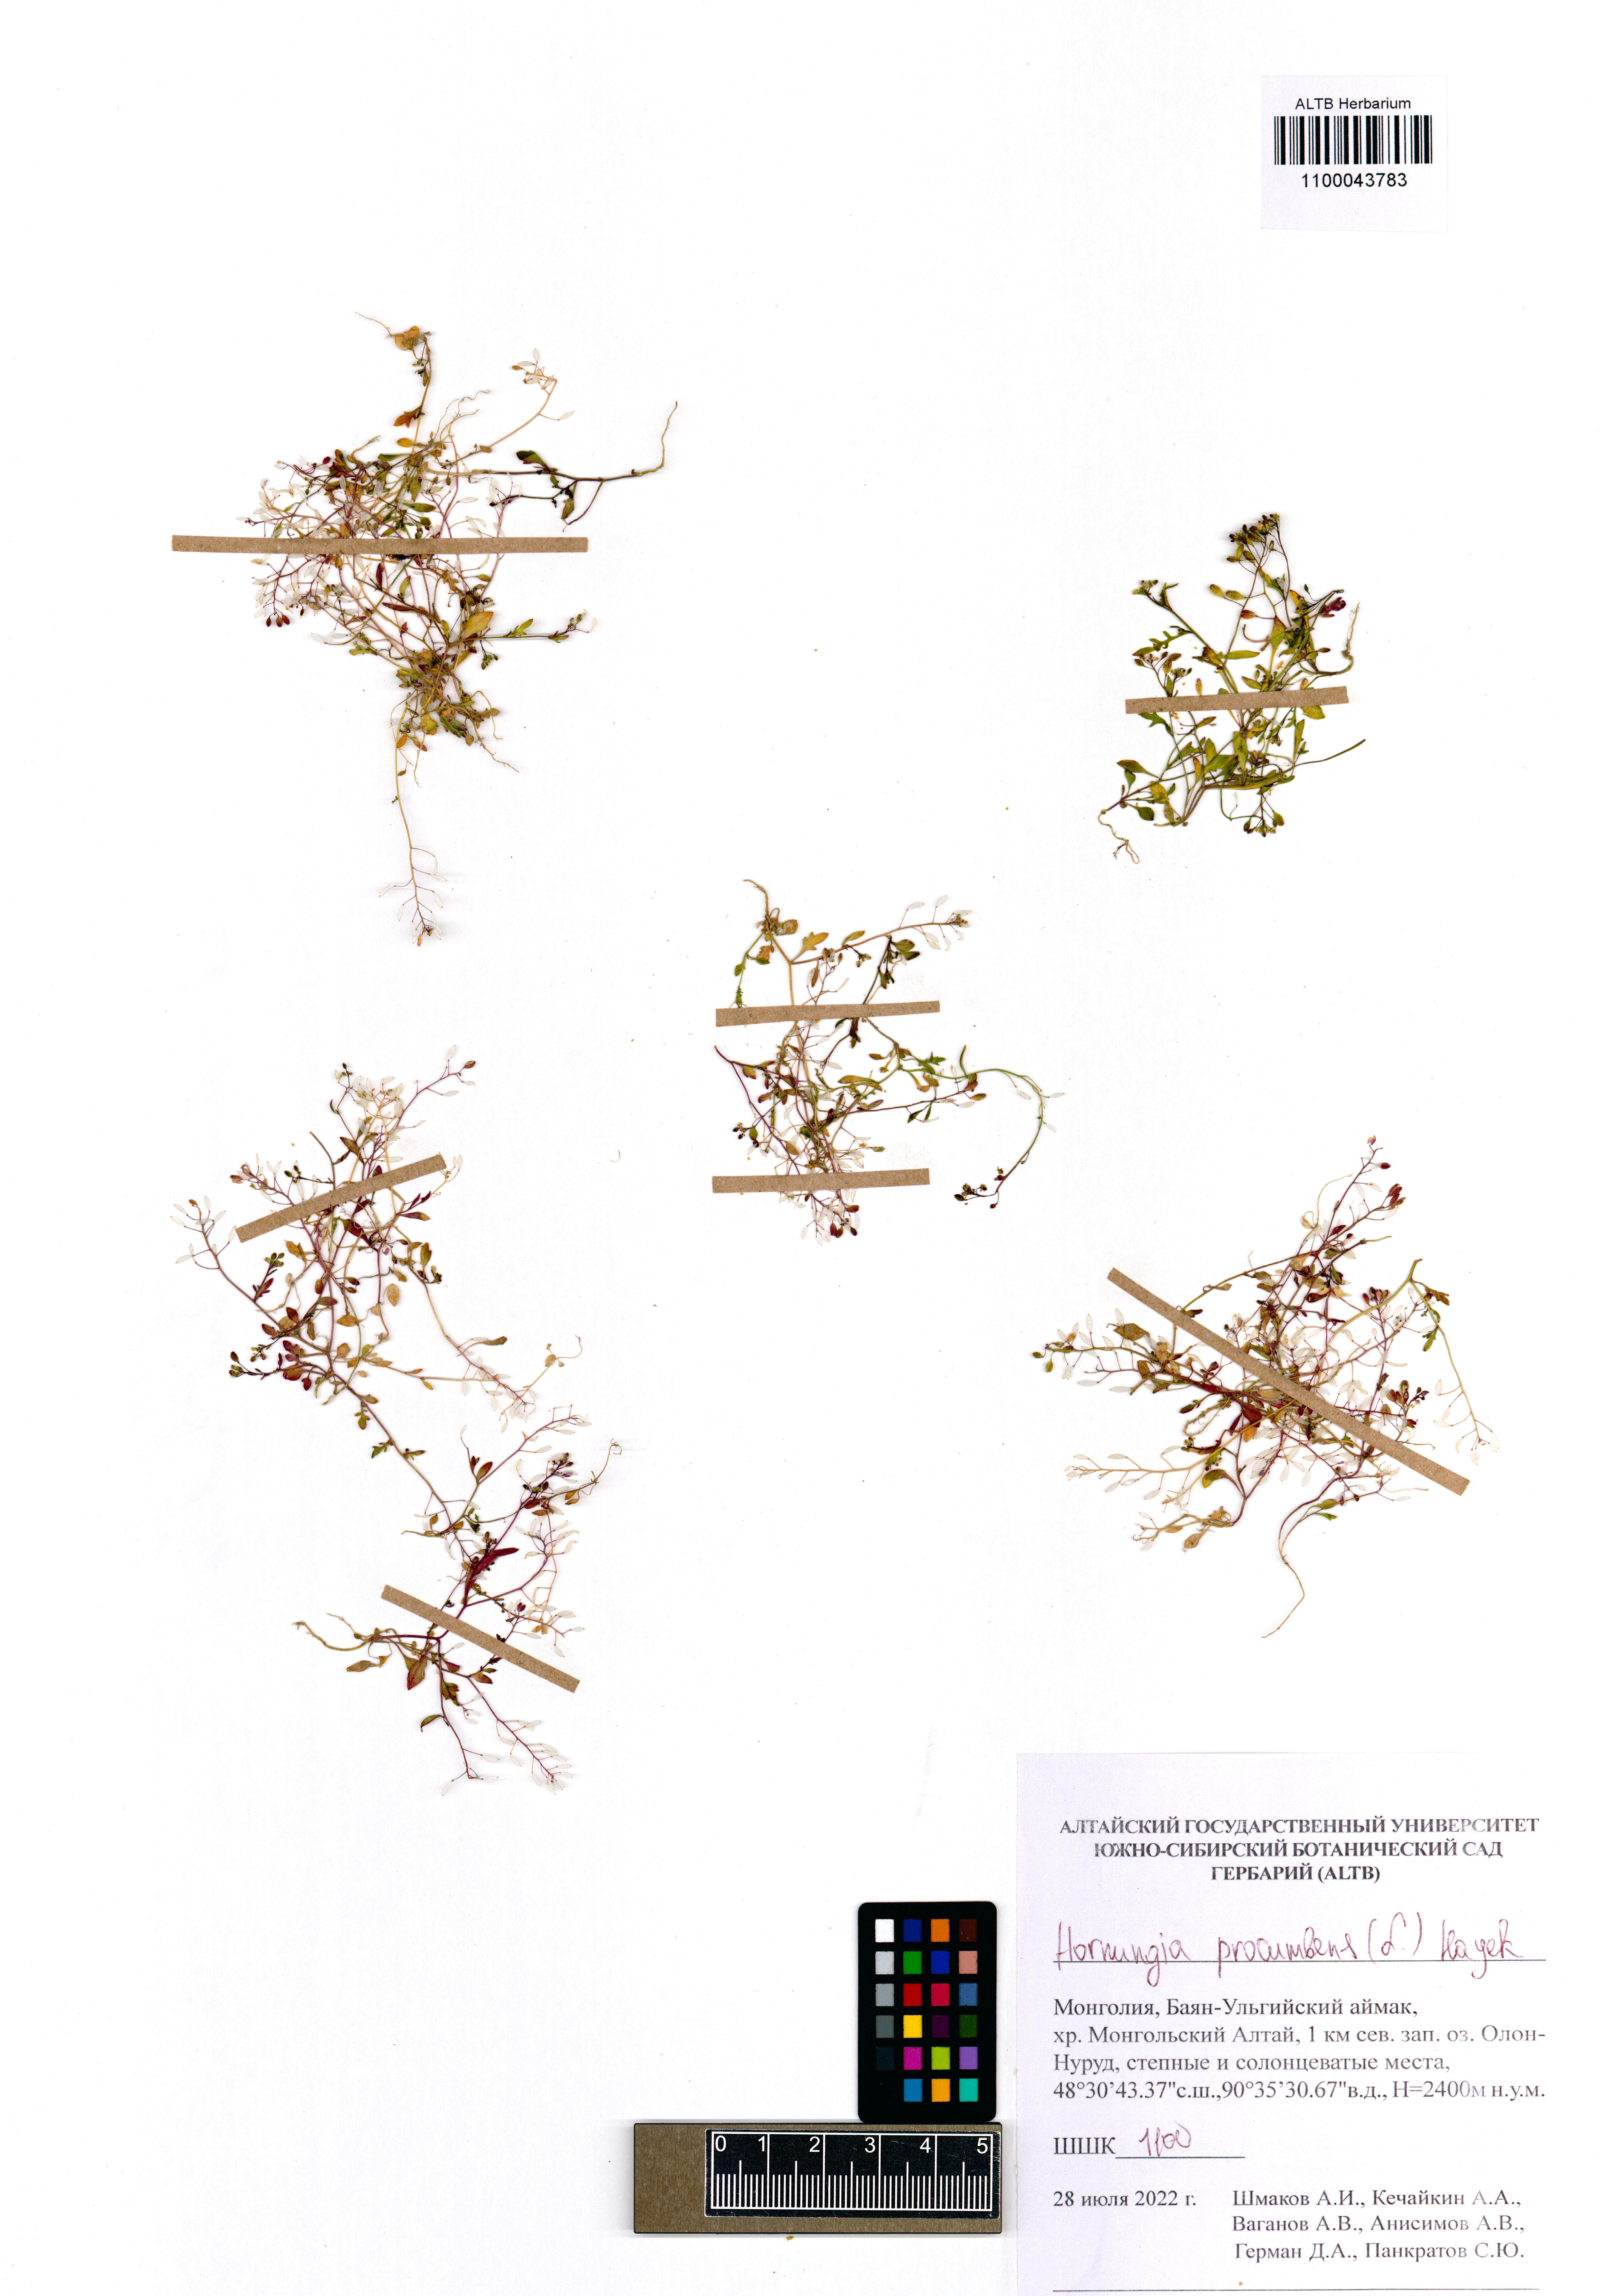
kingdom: Plantae
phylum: Tracheophyta
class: Magnoliopsida
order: Brassicales
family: Brassicaceae
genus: Hornungia
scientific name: Hornungia procumbens
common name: Oval purse
